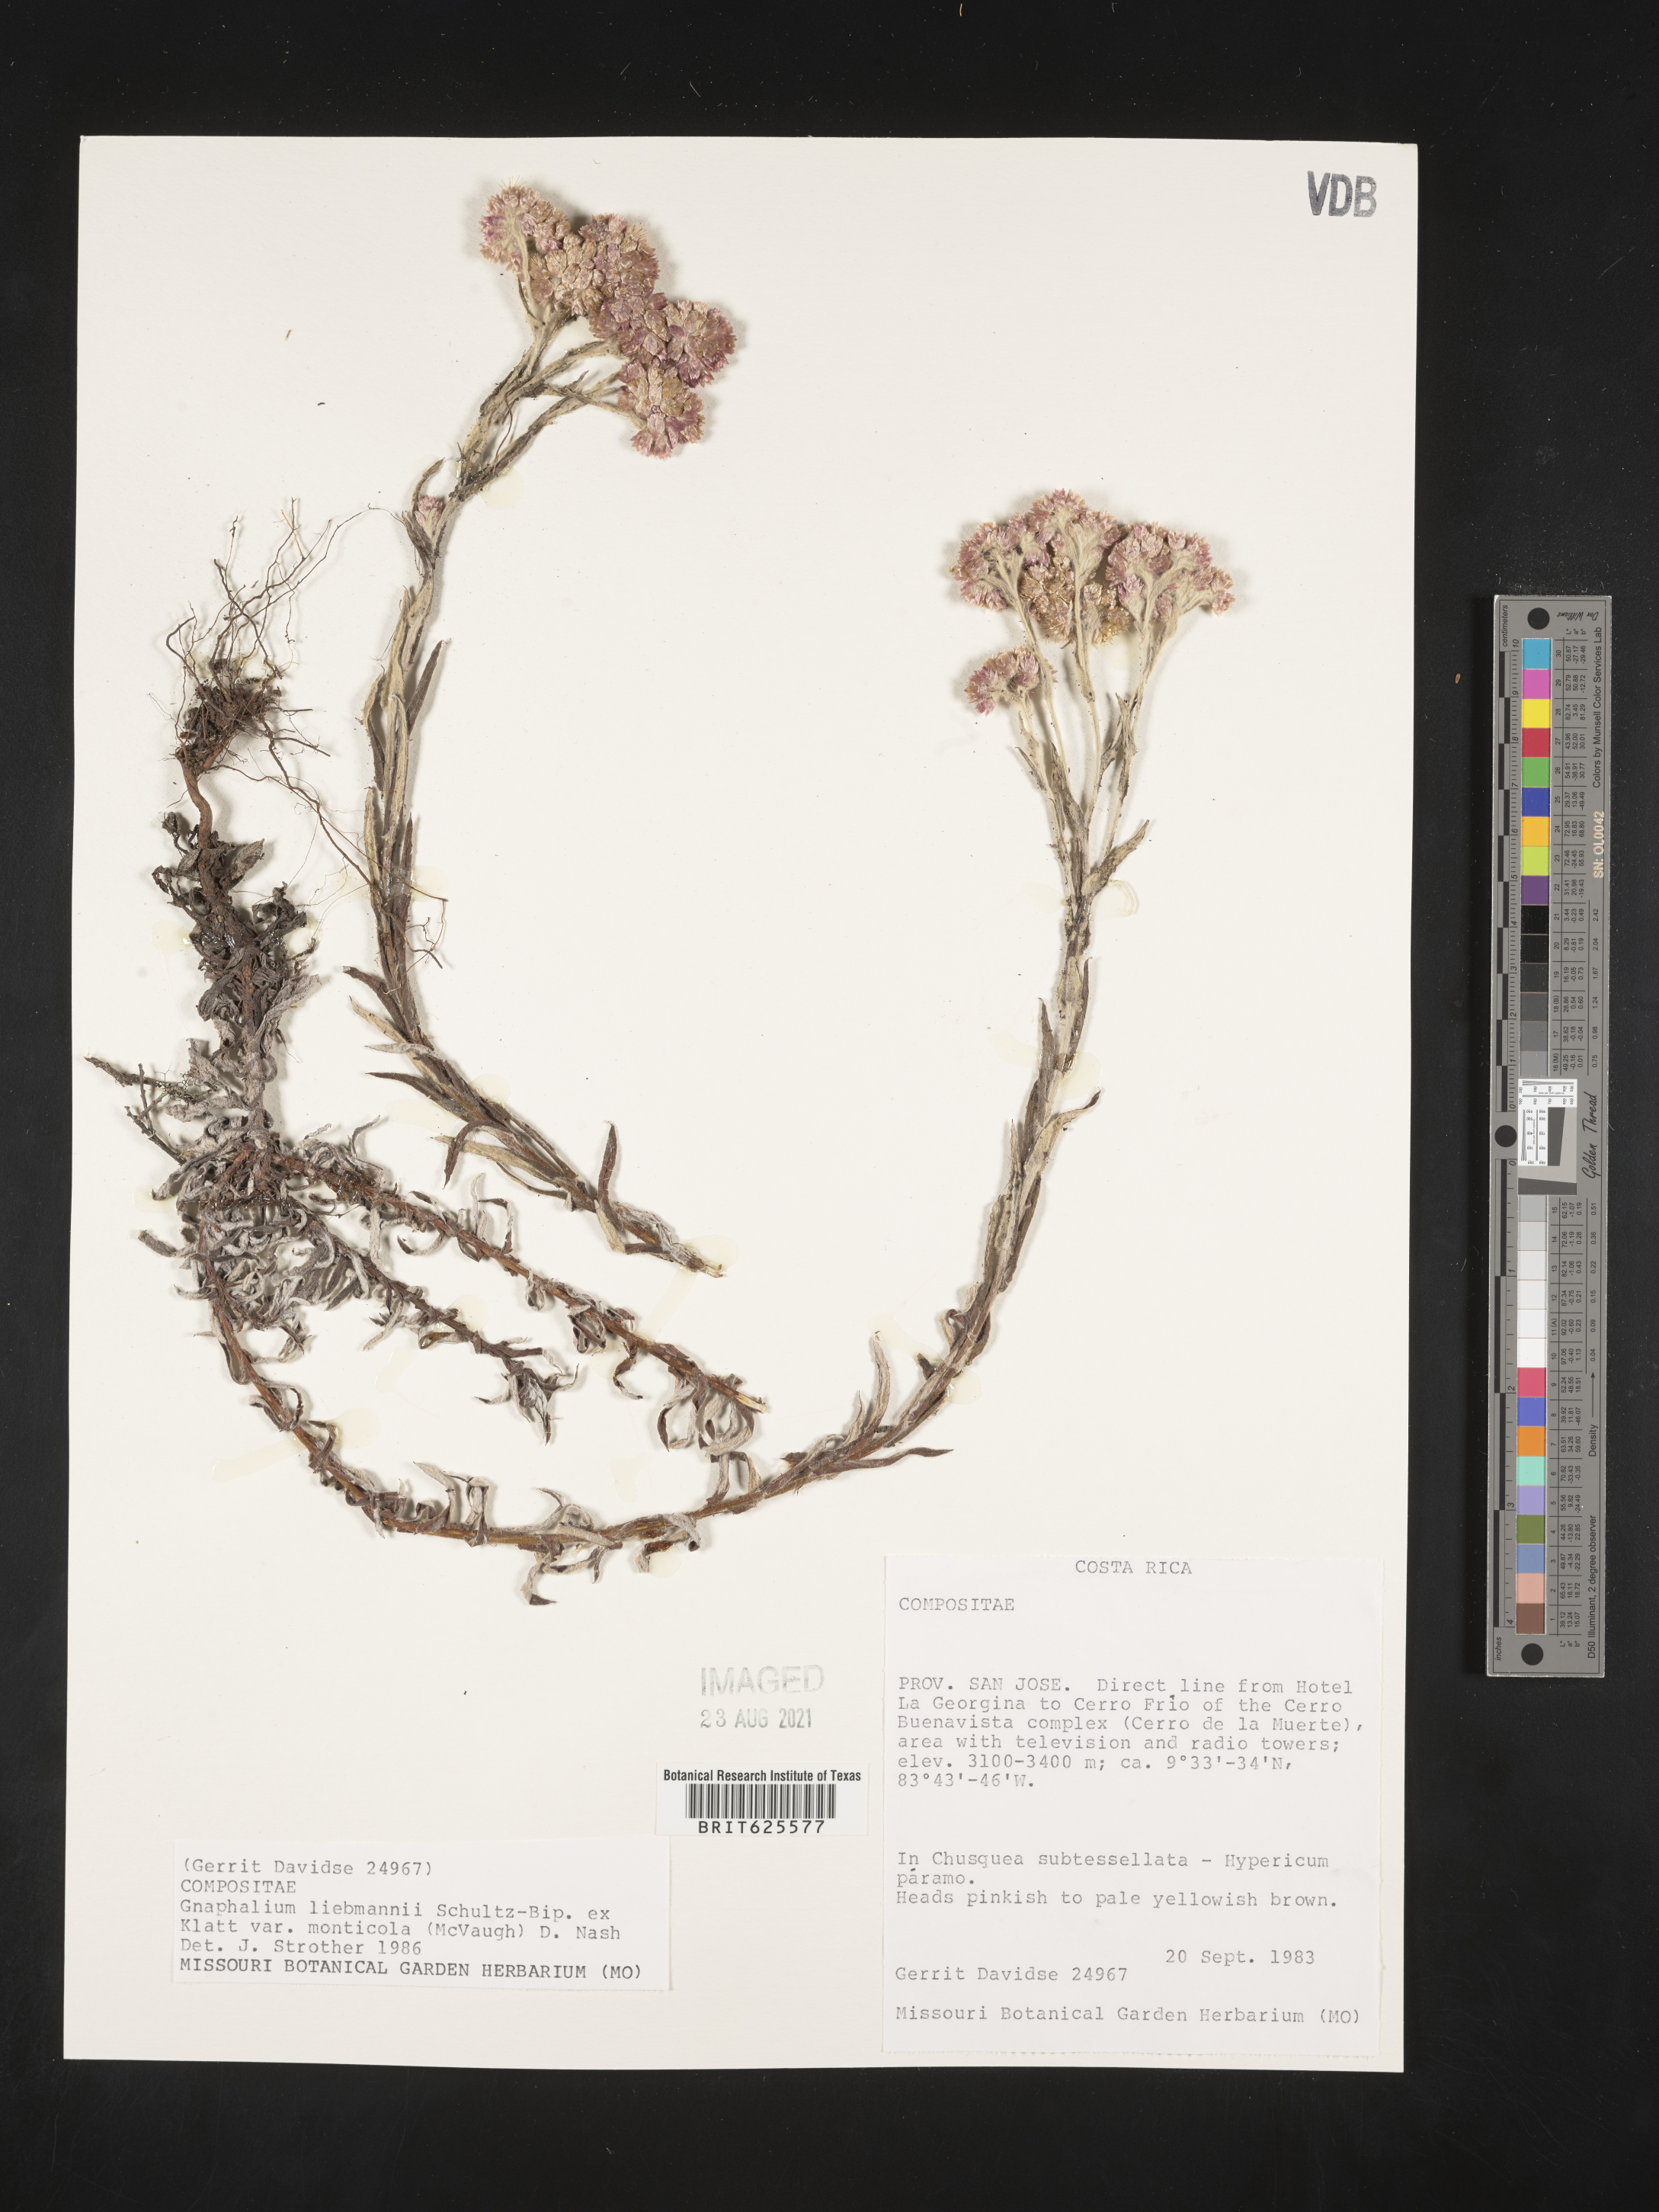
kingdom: Plantae
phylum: Tracheophyta
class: Magnoliopsida
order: Asterales
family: Asteraceae
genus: Pseudognaphalium
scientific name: Pseudognaphalium monticola
